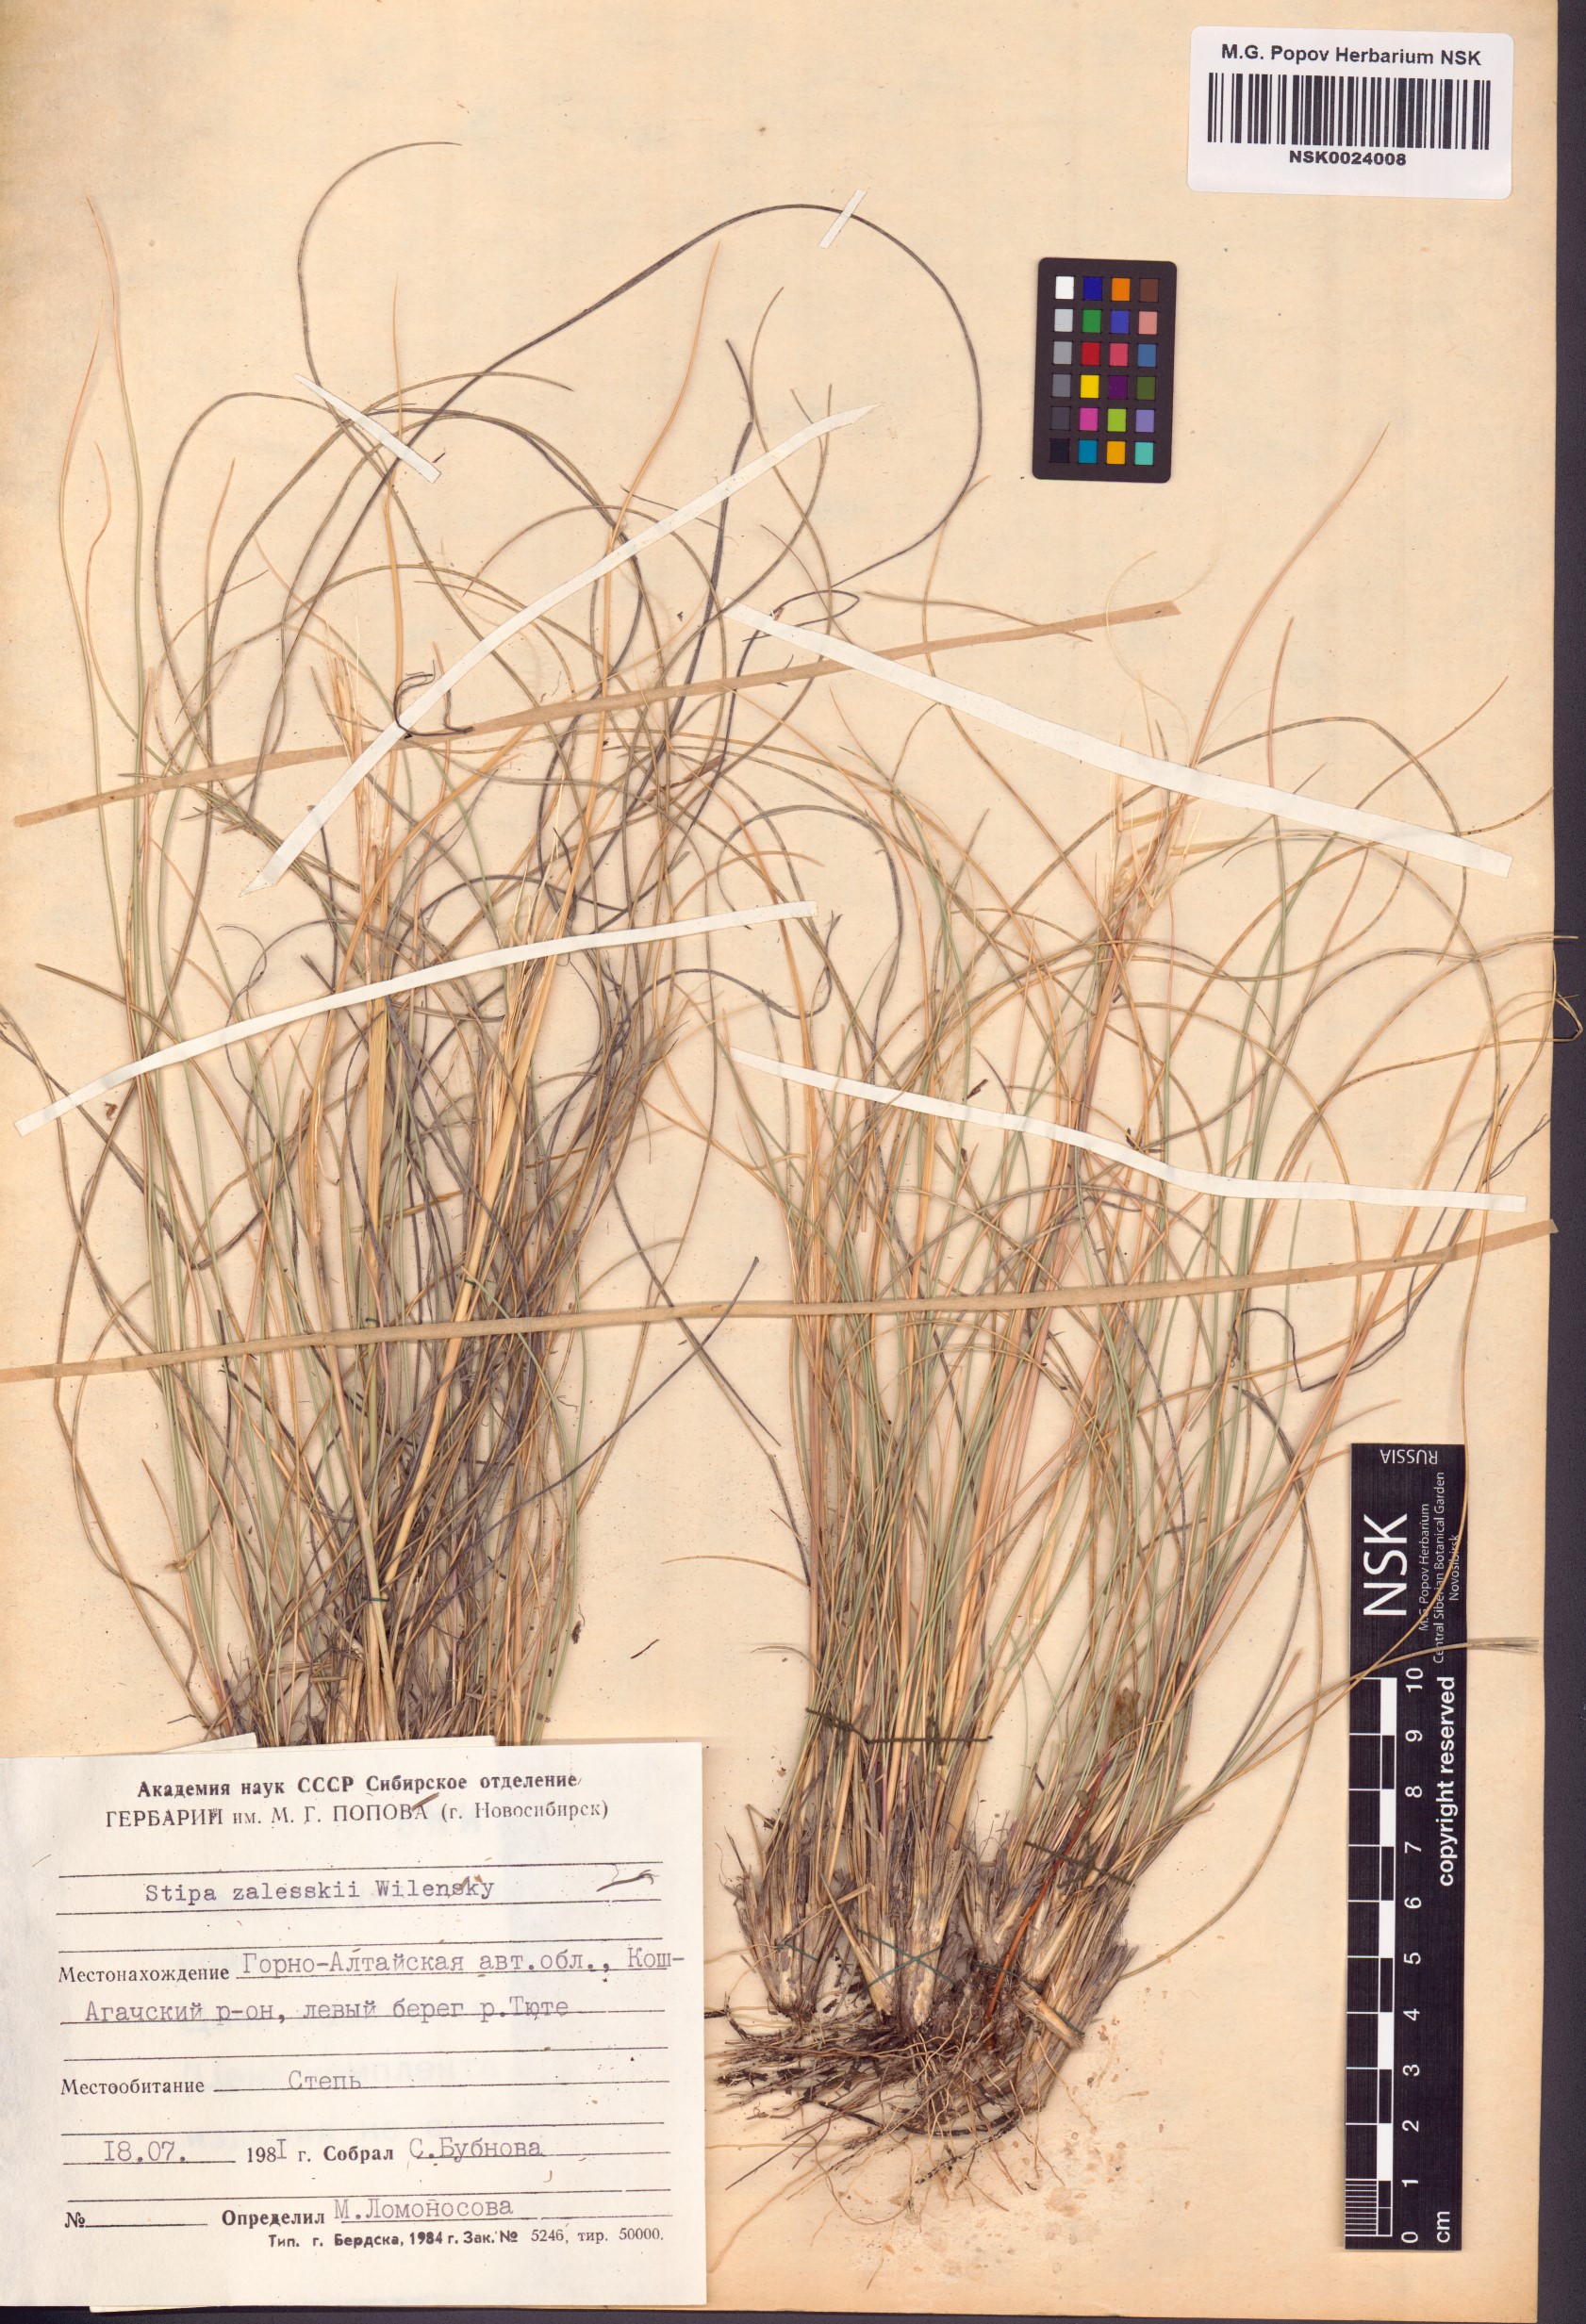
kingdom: Plantae
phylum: Tracheophyta
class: Liliopsida
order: Poales
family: Poaceae
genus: Stipa
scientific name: Stipa zalesskii
